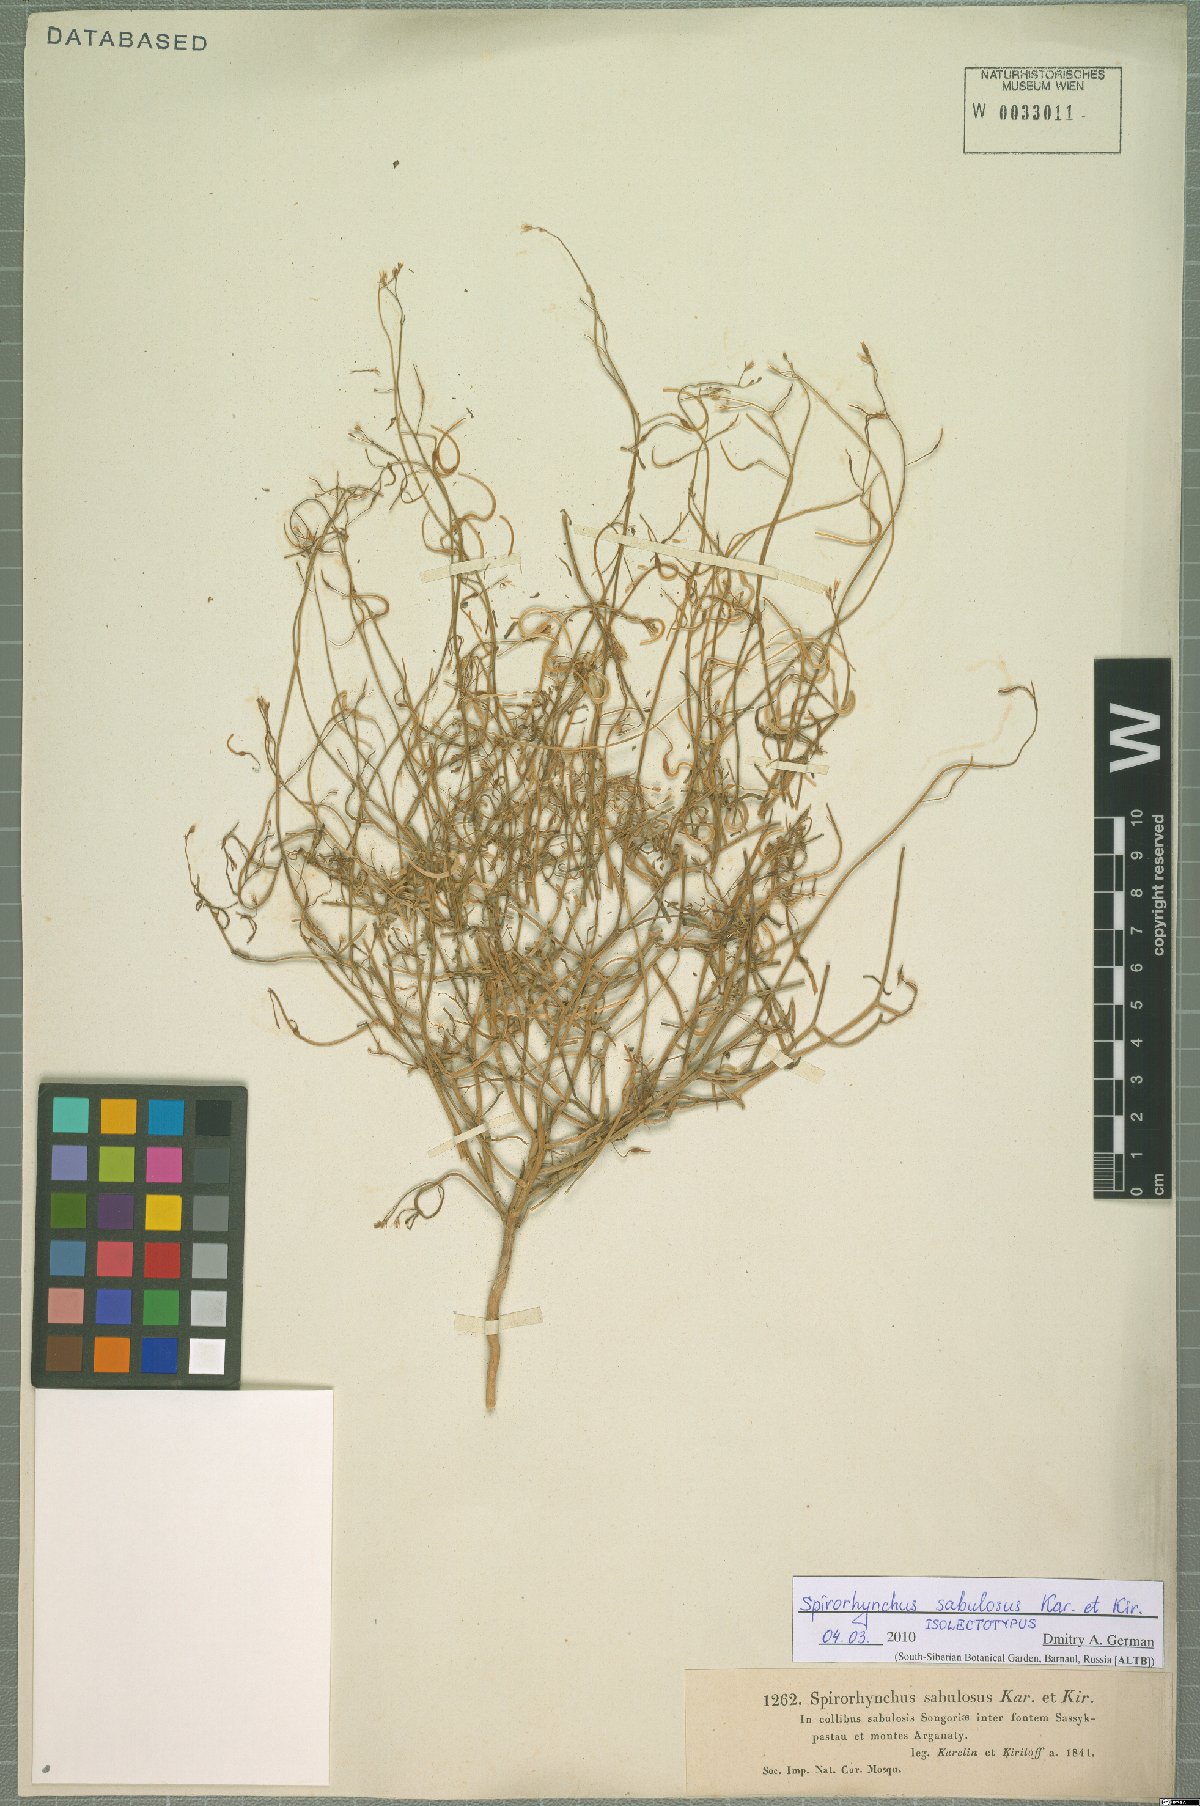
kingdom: Plantae
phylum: Tracheophyta
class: Magnoliopsida
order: Brassicales
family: Brassicaceae
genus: Goldbachia
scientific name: Goldbachia sabulosa
